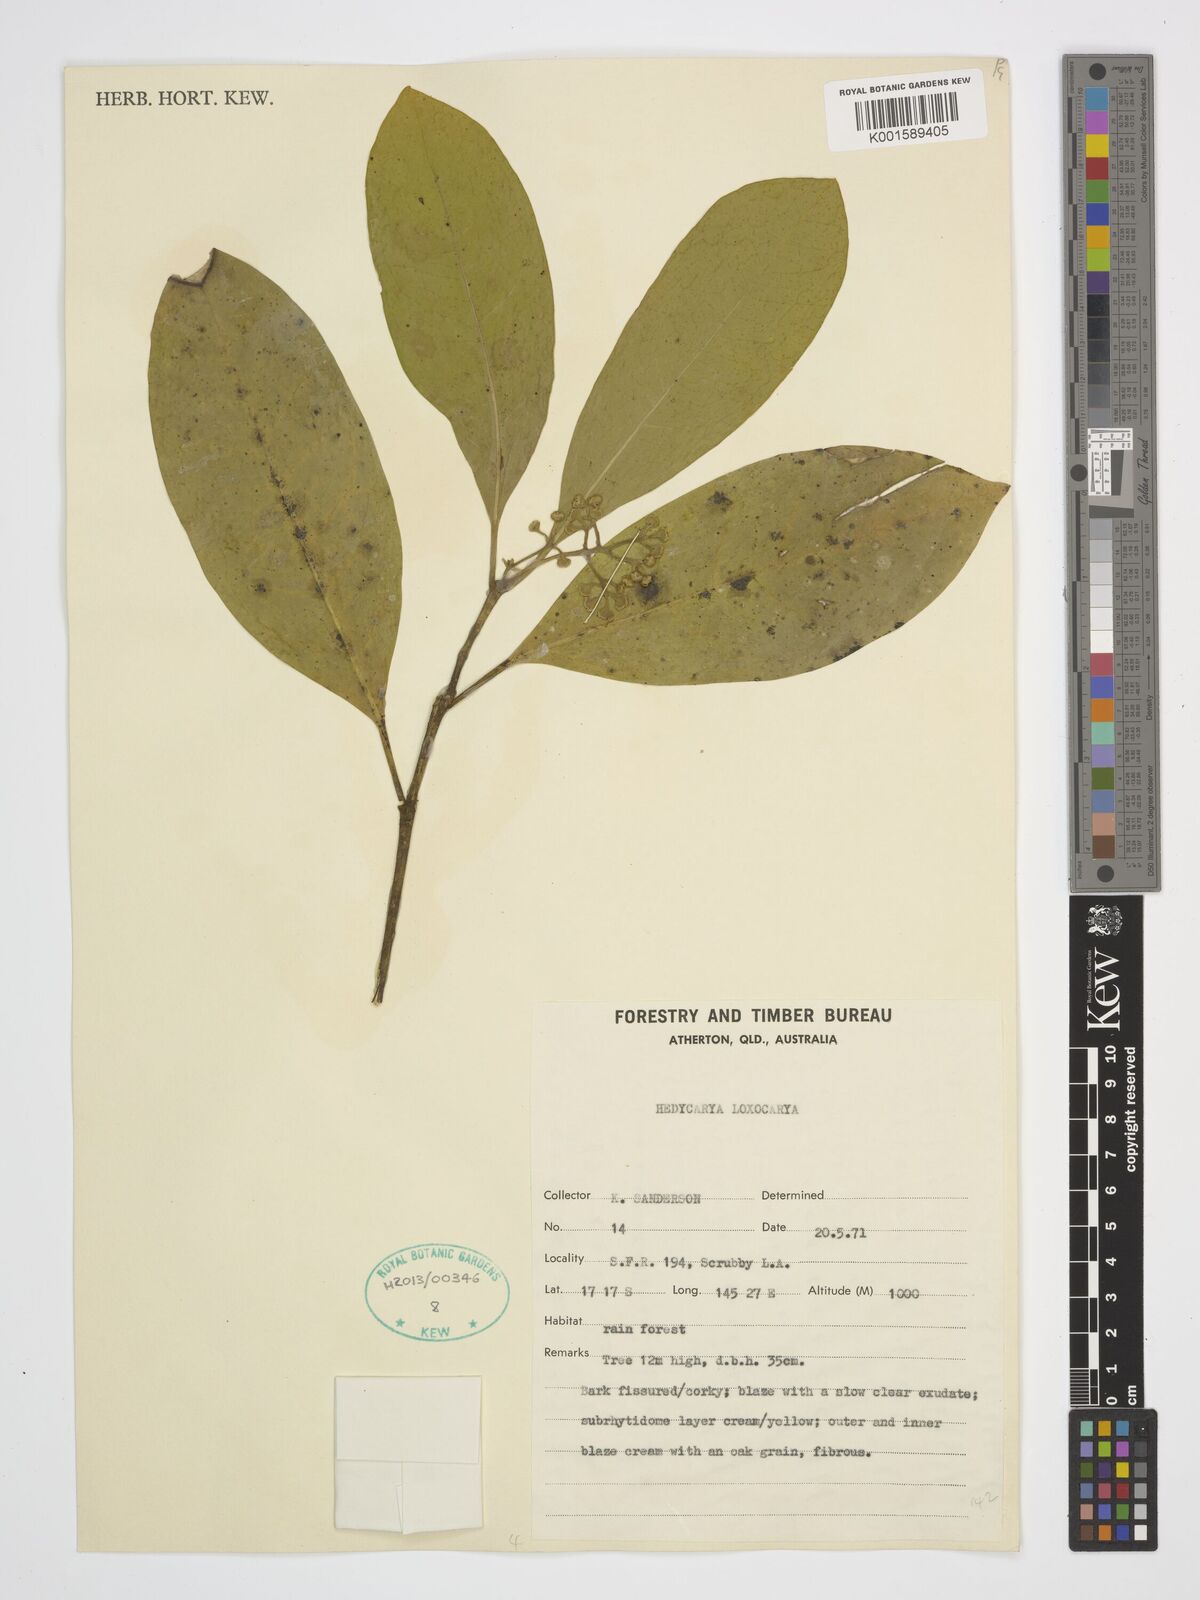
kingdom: Plantae
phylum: Tracheophyta
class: Magnoliopsida
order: Laurales
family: Monimiaceae
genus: Hedycarya
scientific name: Hedycarya loxocarya
